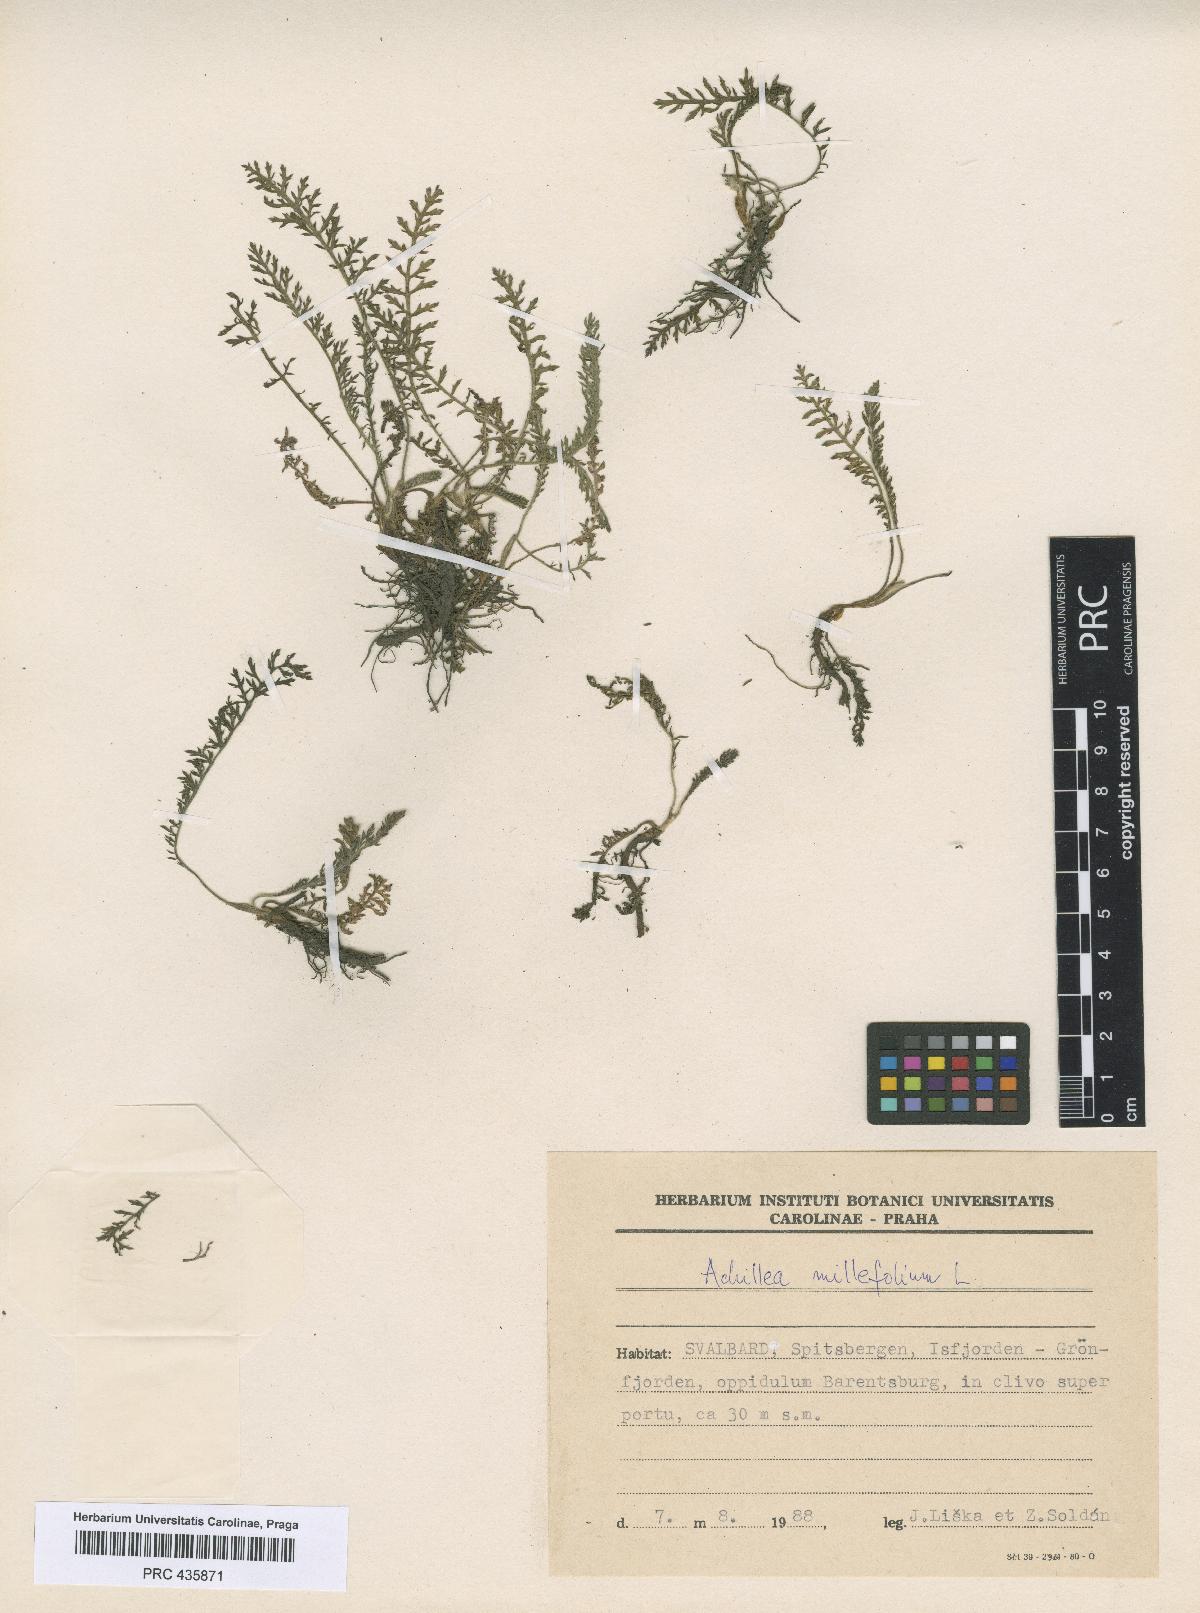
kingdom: Plantae
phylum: Tracheophyta
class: Magnoliopsida
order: Asterales
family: Asteraceae
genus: Achillea
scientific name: Achillea millefolium
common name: Yarrow
